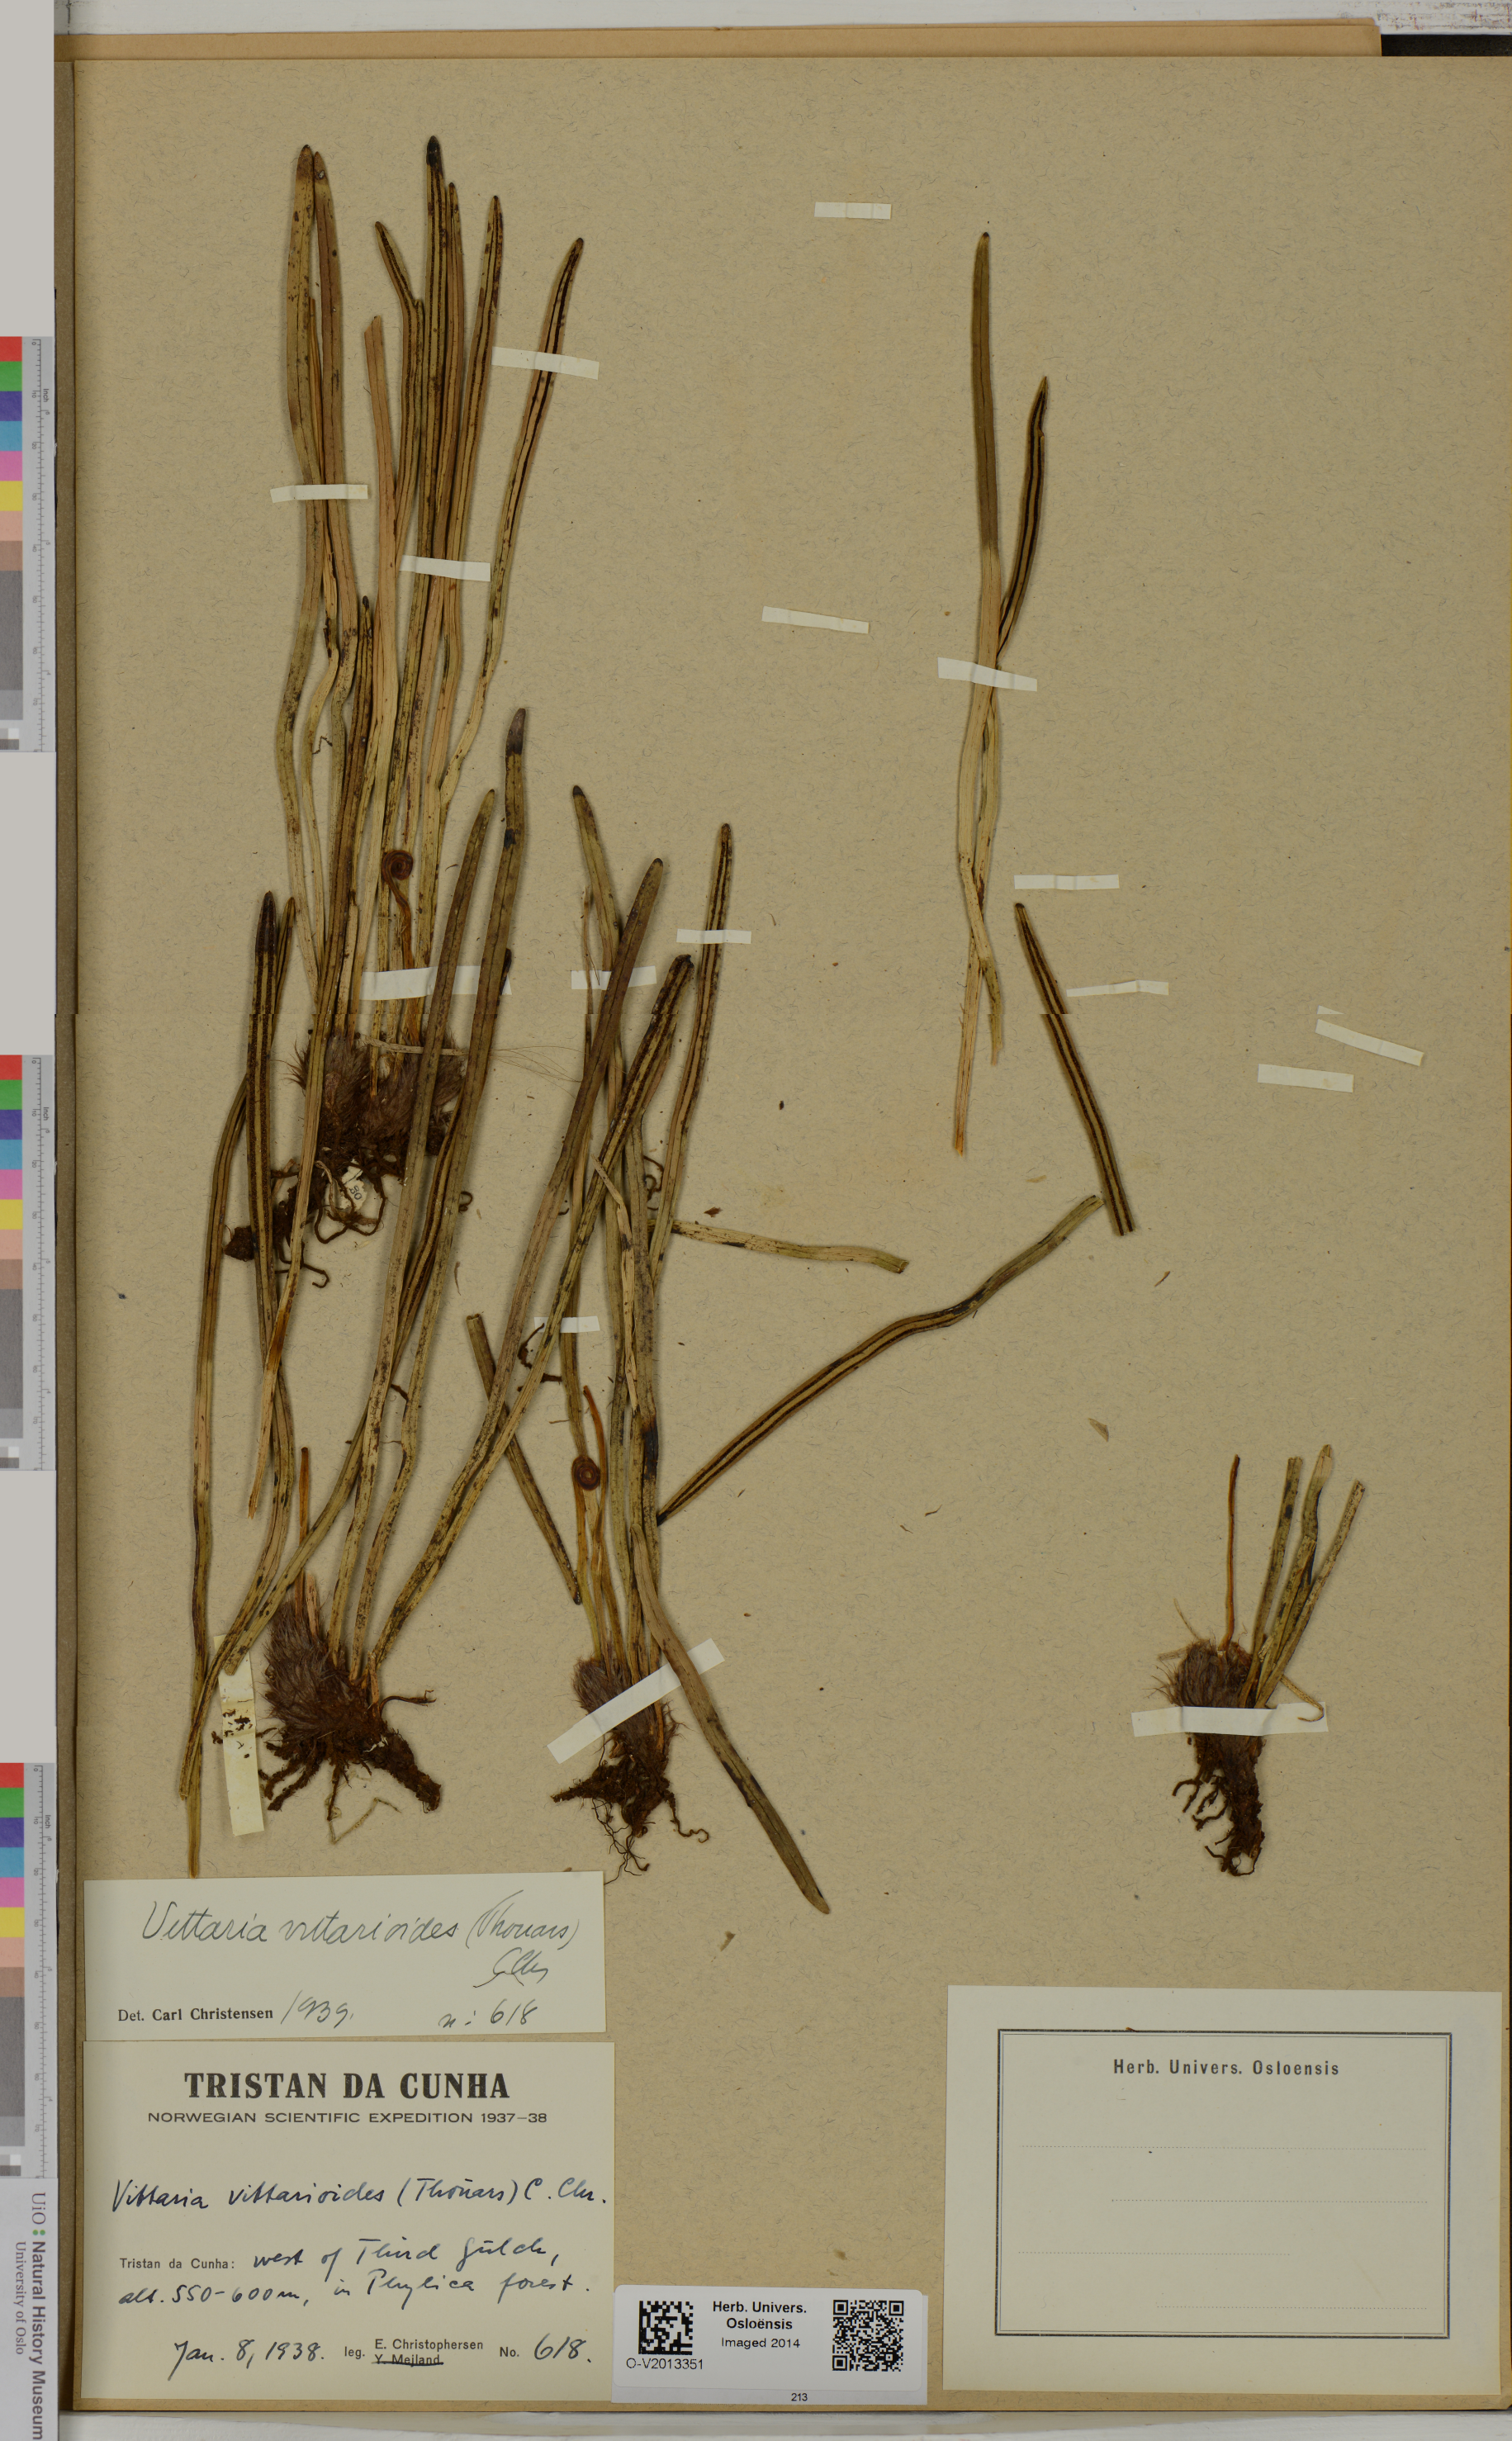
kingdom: Plantae
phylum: Tracheophyta
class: Polypodiopsida
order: Polypodiales
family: Pteridaceae
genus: Haplopteris
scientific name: Haplopteris vittarioides
